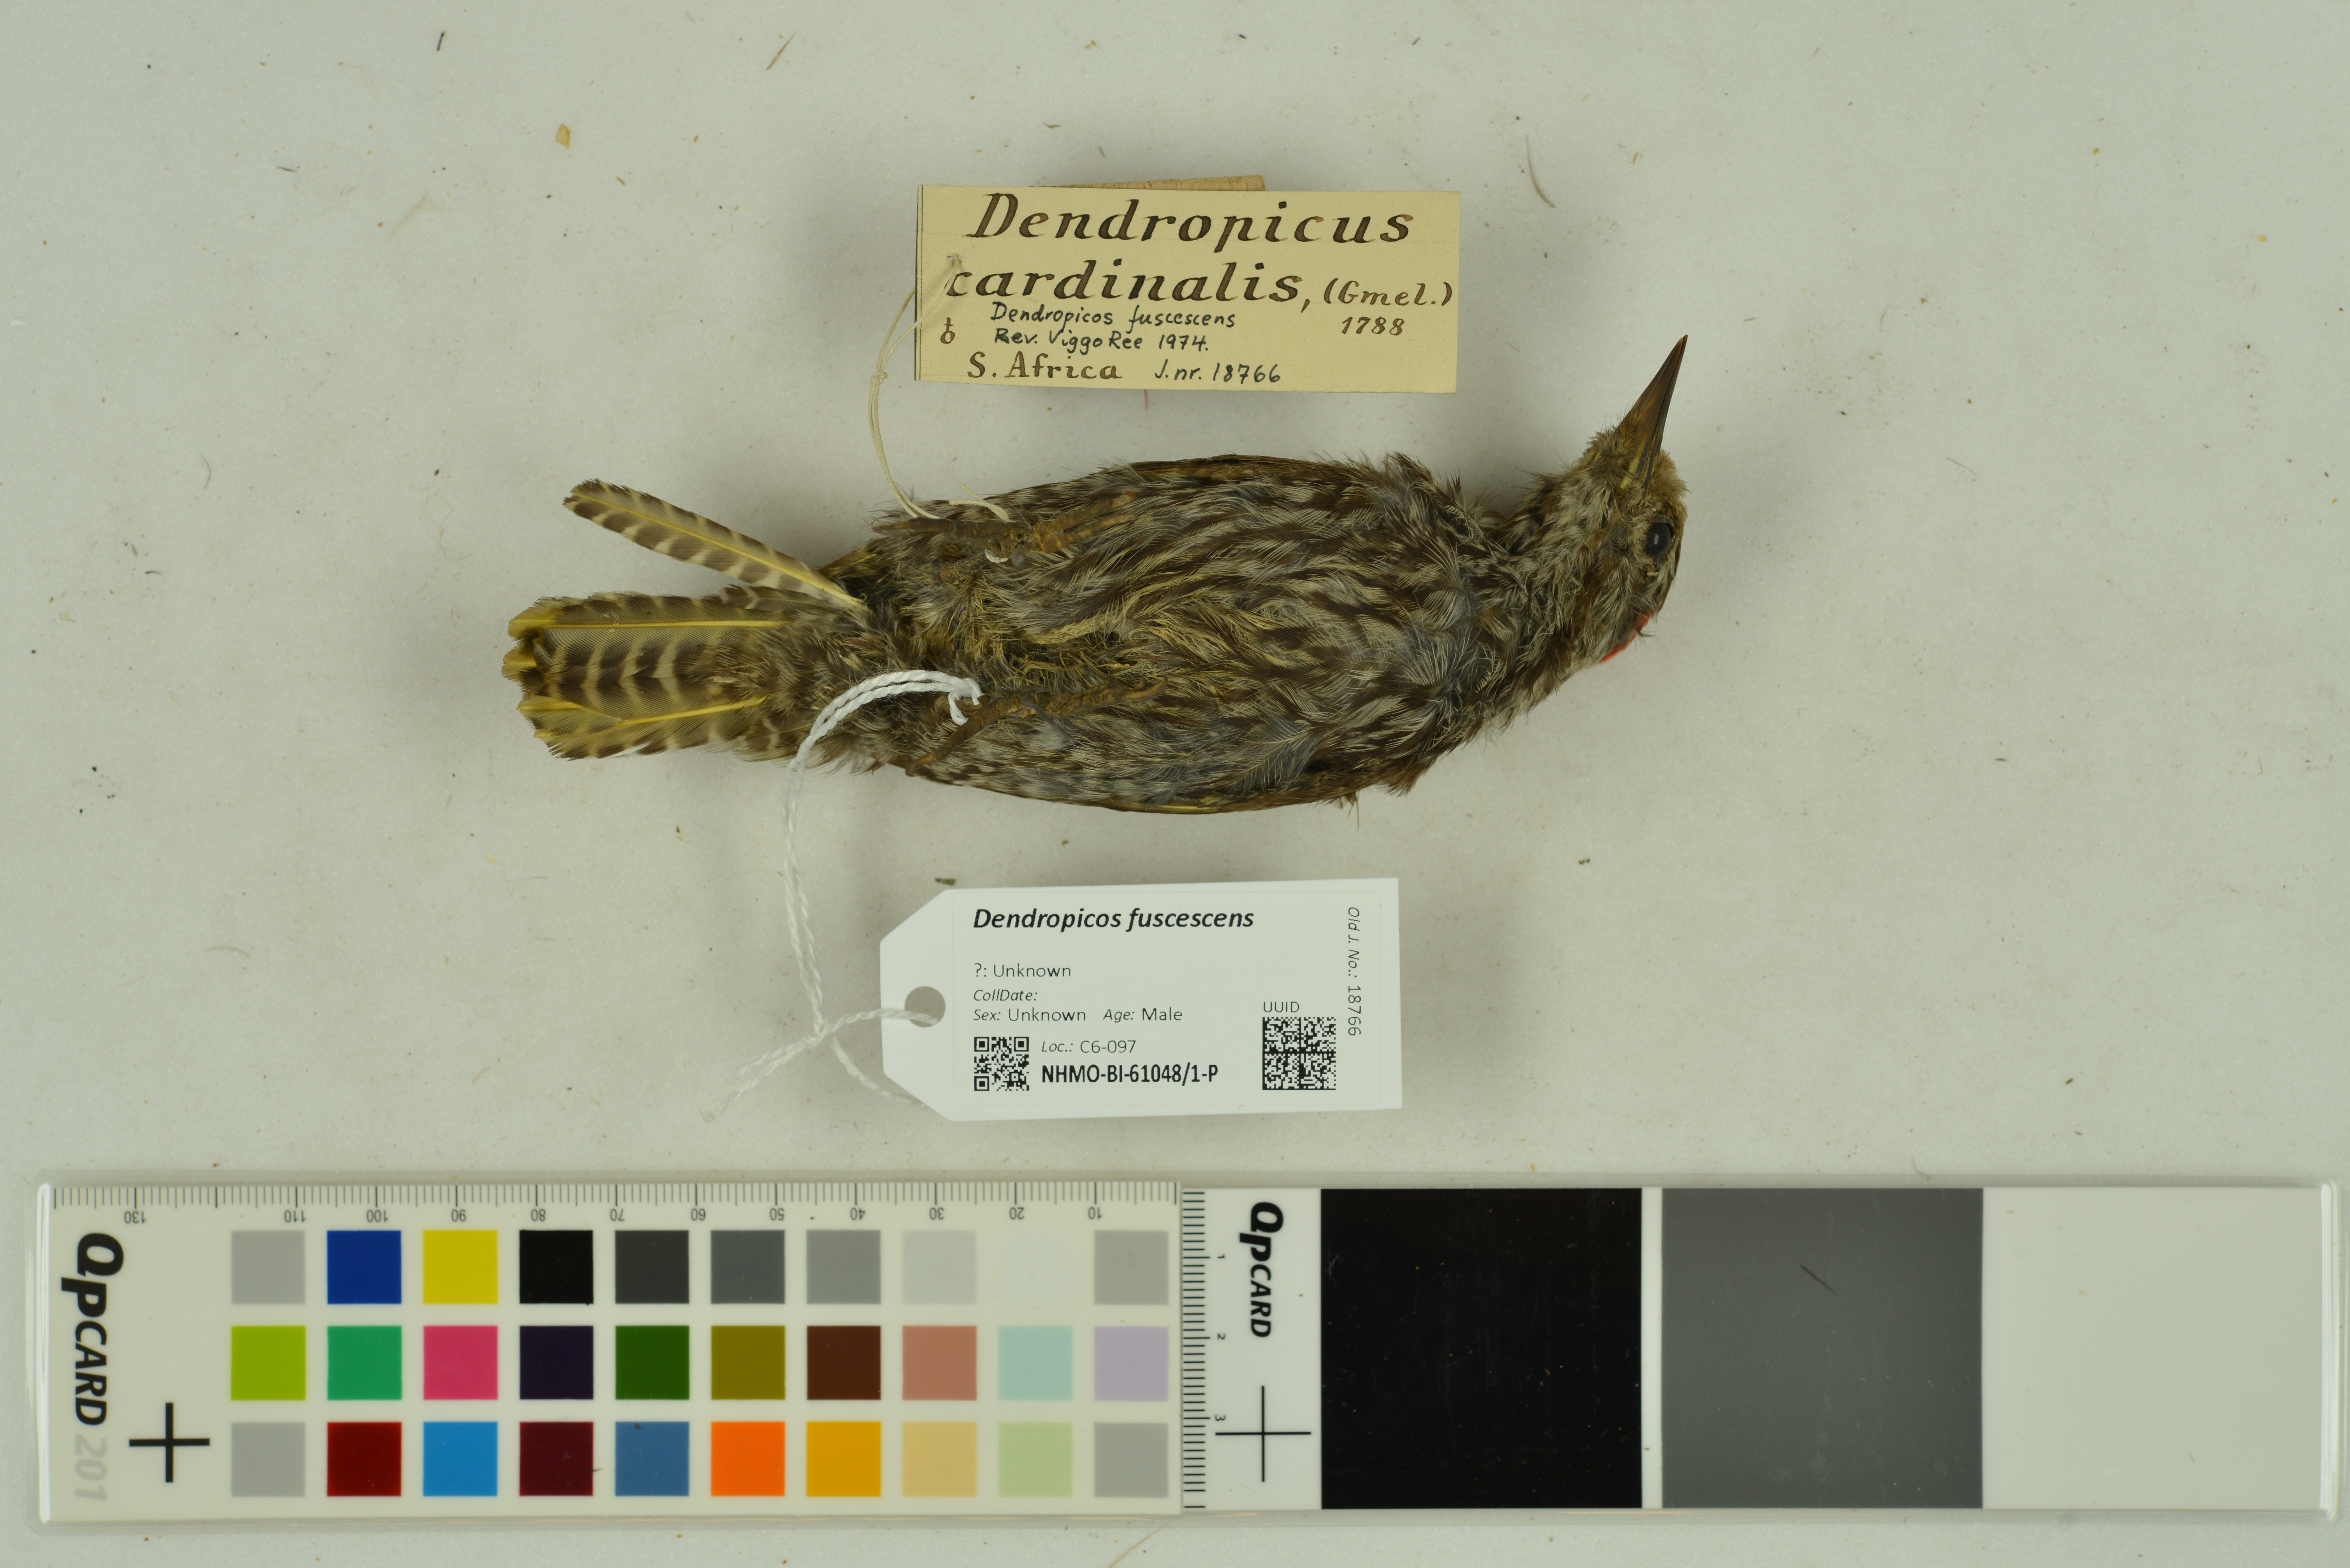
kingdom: Animalia
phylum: Chordata
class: Aves
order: Piciformes
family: Picidae
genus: Dendropicos
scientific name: Dendropicos fuscescens
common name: Cardinal woodpecker
